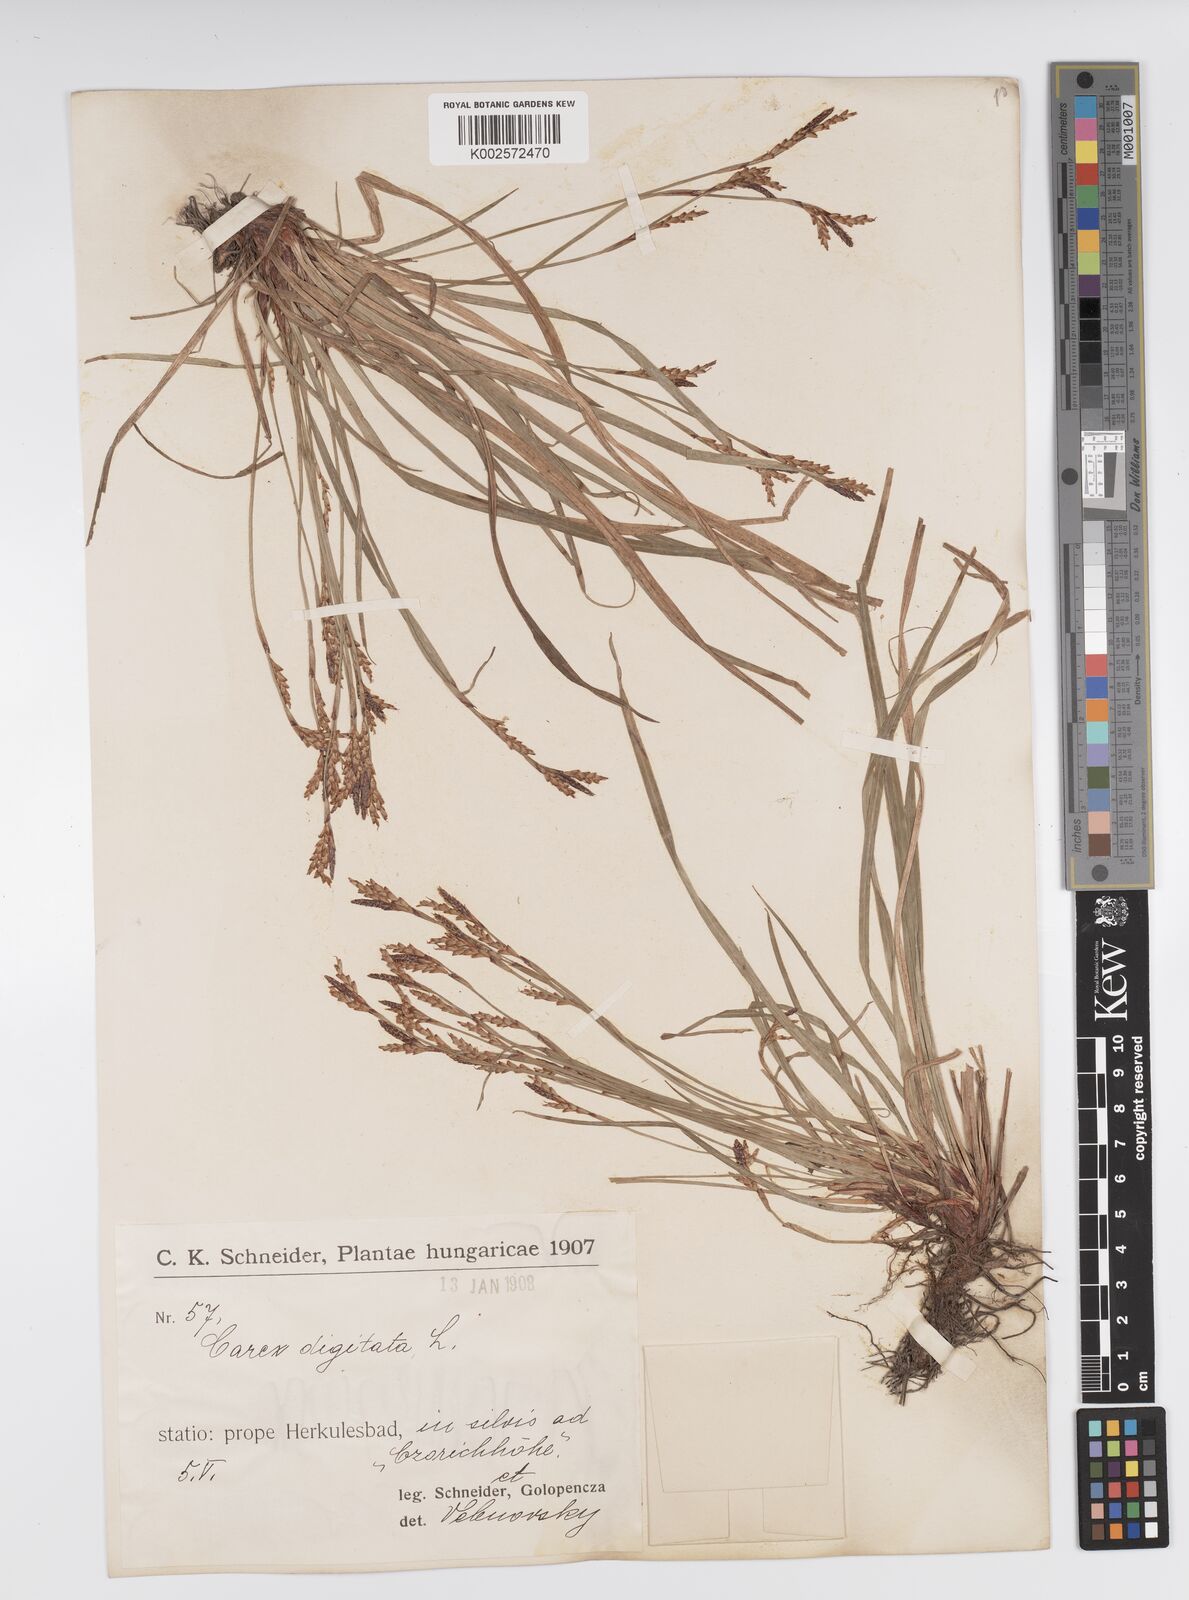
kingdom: Plantae
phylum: Tracheophyta
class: Liliopsida
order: Poales
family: Cyperaceae
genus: Carex
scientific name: Carex digitata
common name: Fingered sedge
